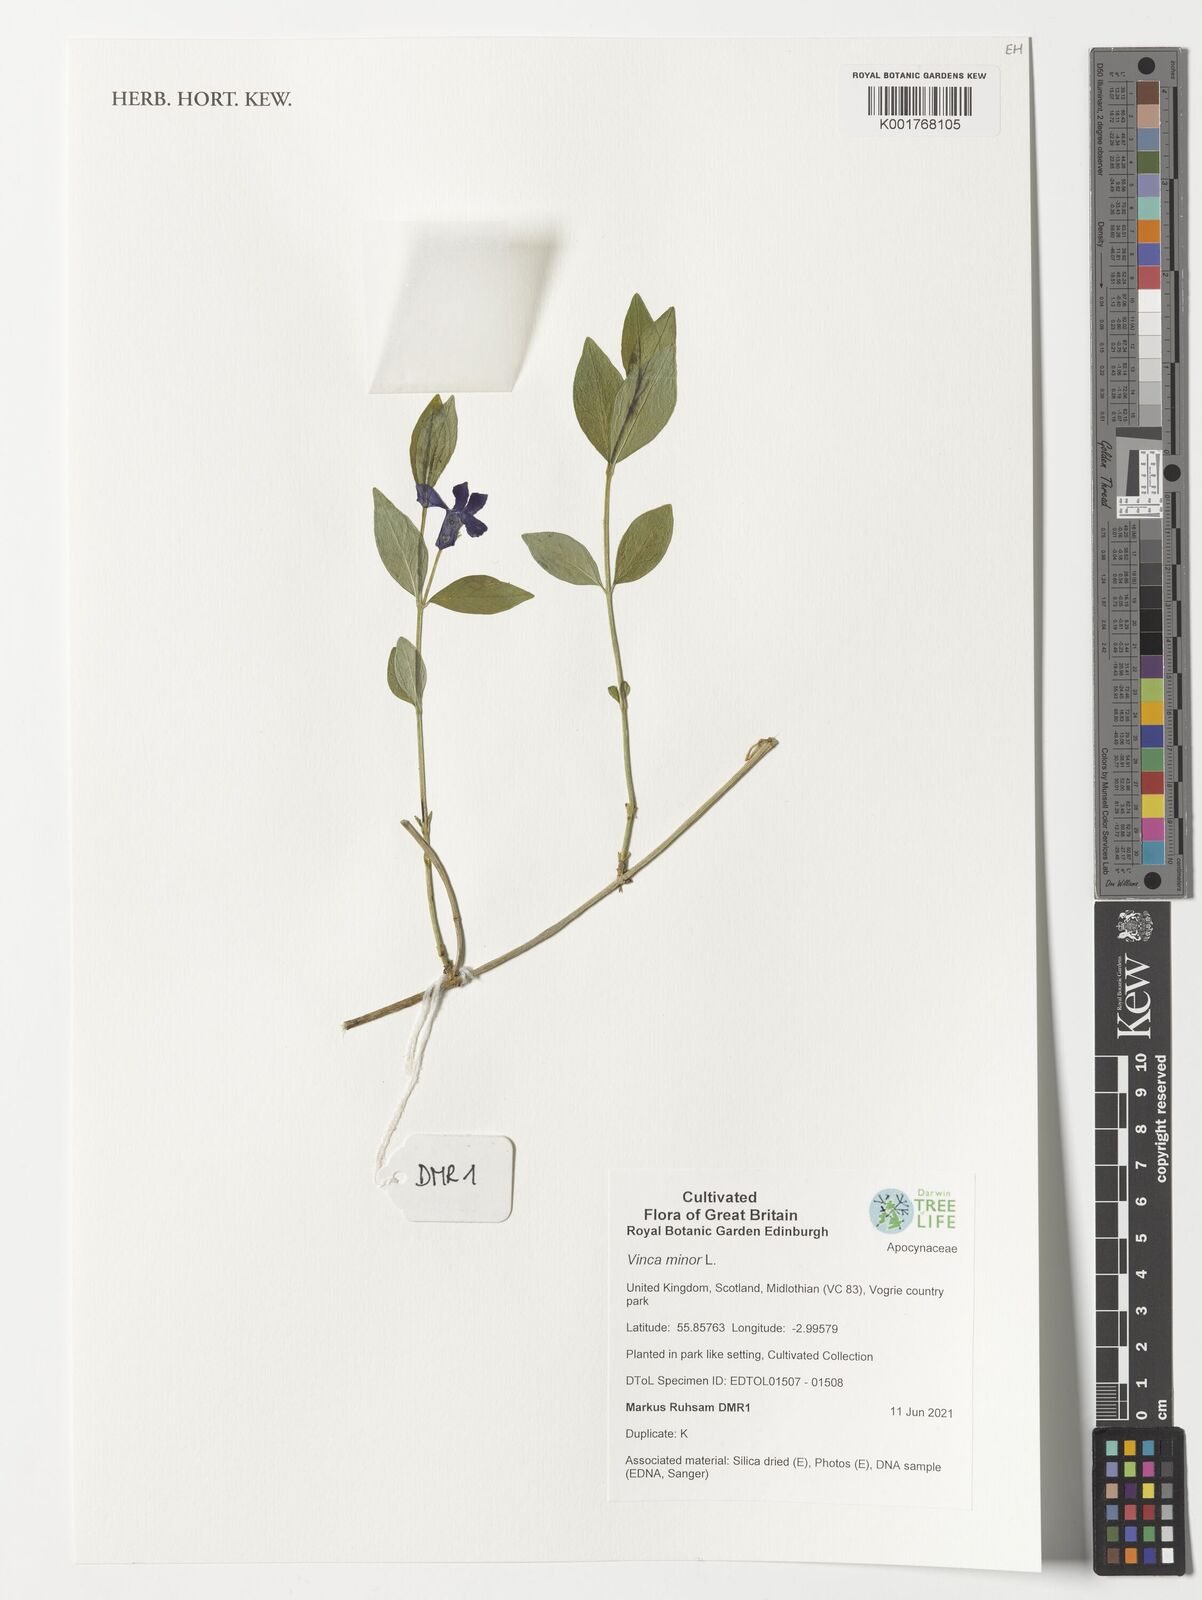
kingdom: Plantae
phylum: Tracheophyta
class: Magnoliopsida
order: Gentianales
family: Apocynaceae
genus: Vinca
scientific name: Vinca minor
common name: Lesser periwinkle
